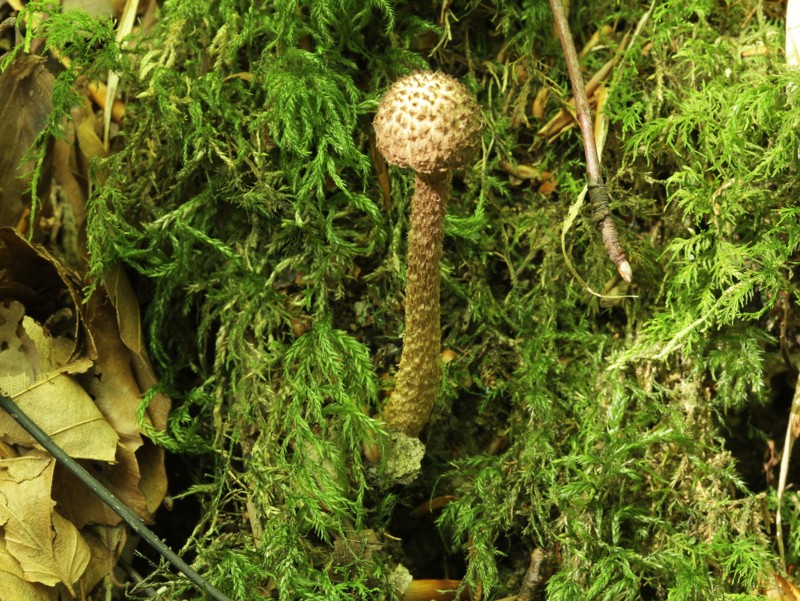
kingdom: Fungi
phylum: Basidiomycota
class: Agaricomycetes
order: Agaricales
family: Inocybaceae
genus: Inocybe
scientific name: Inocybe hystrix
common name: krumskællet trævlhat
